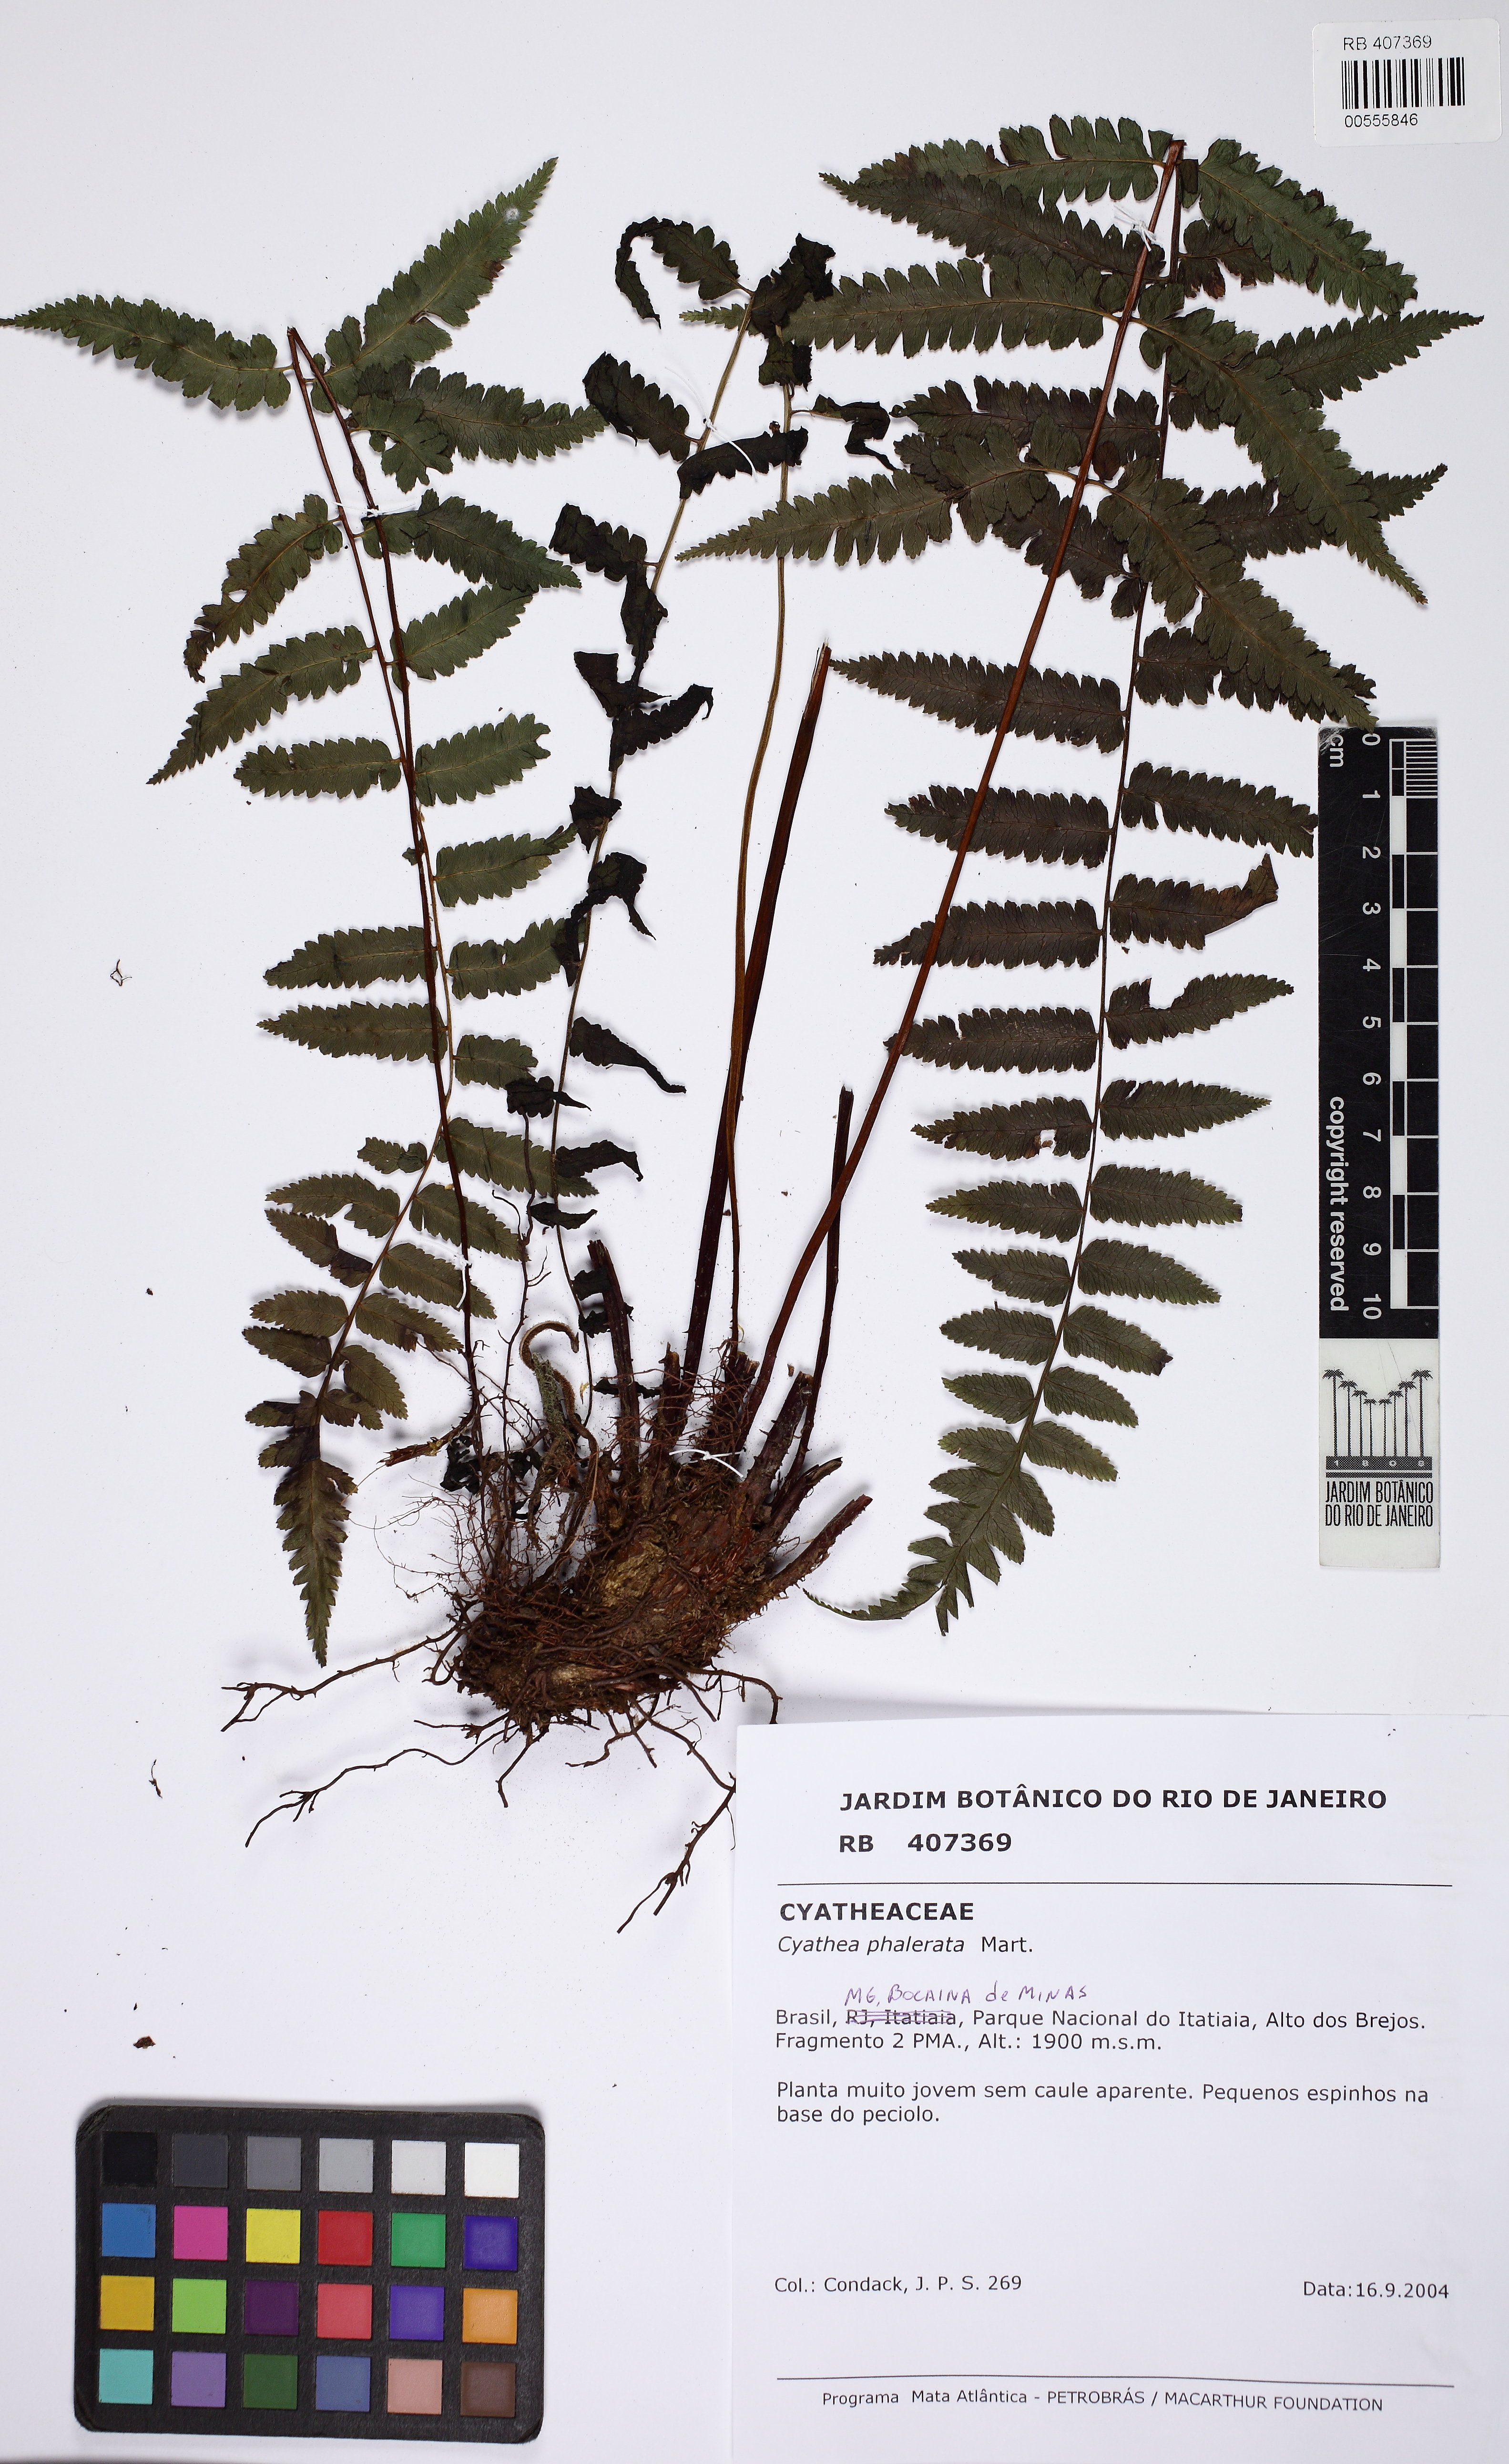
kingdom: Plantae
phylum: Tracheophyta
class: Polypodiopsida
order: Cyatheales
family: Cyatheaceae
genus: Cyathea
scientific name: Cyathea phalerata
